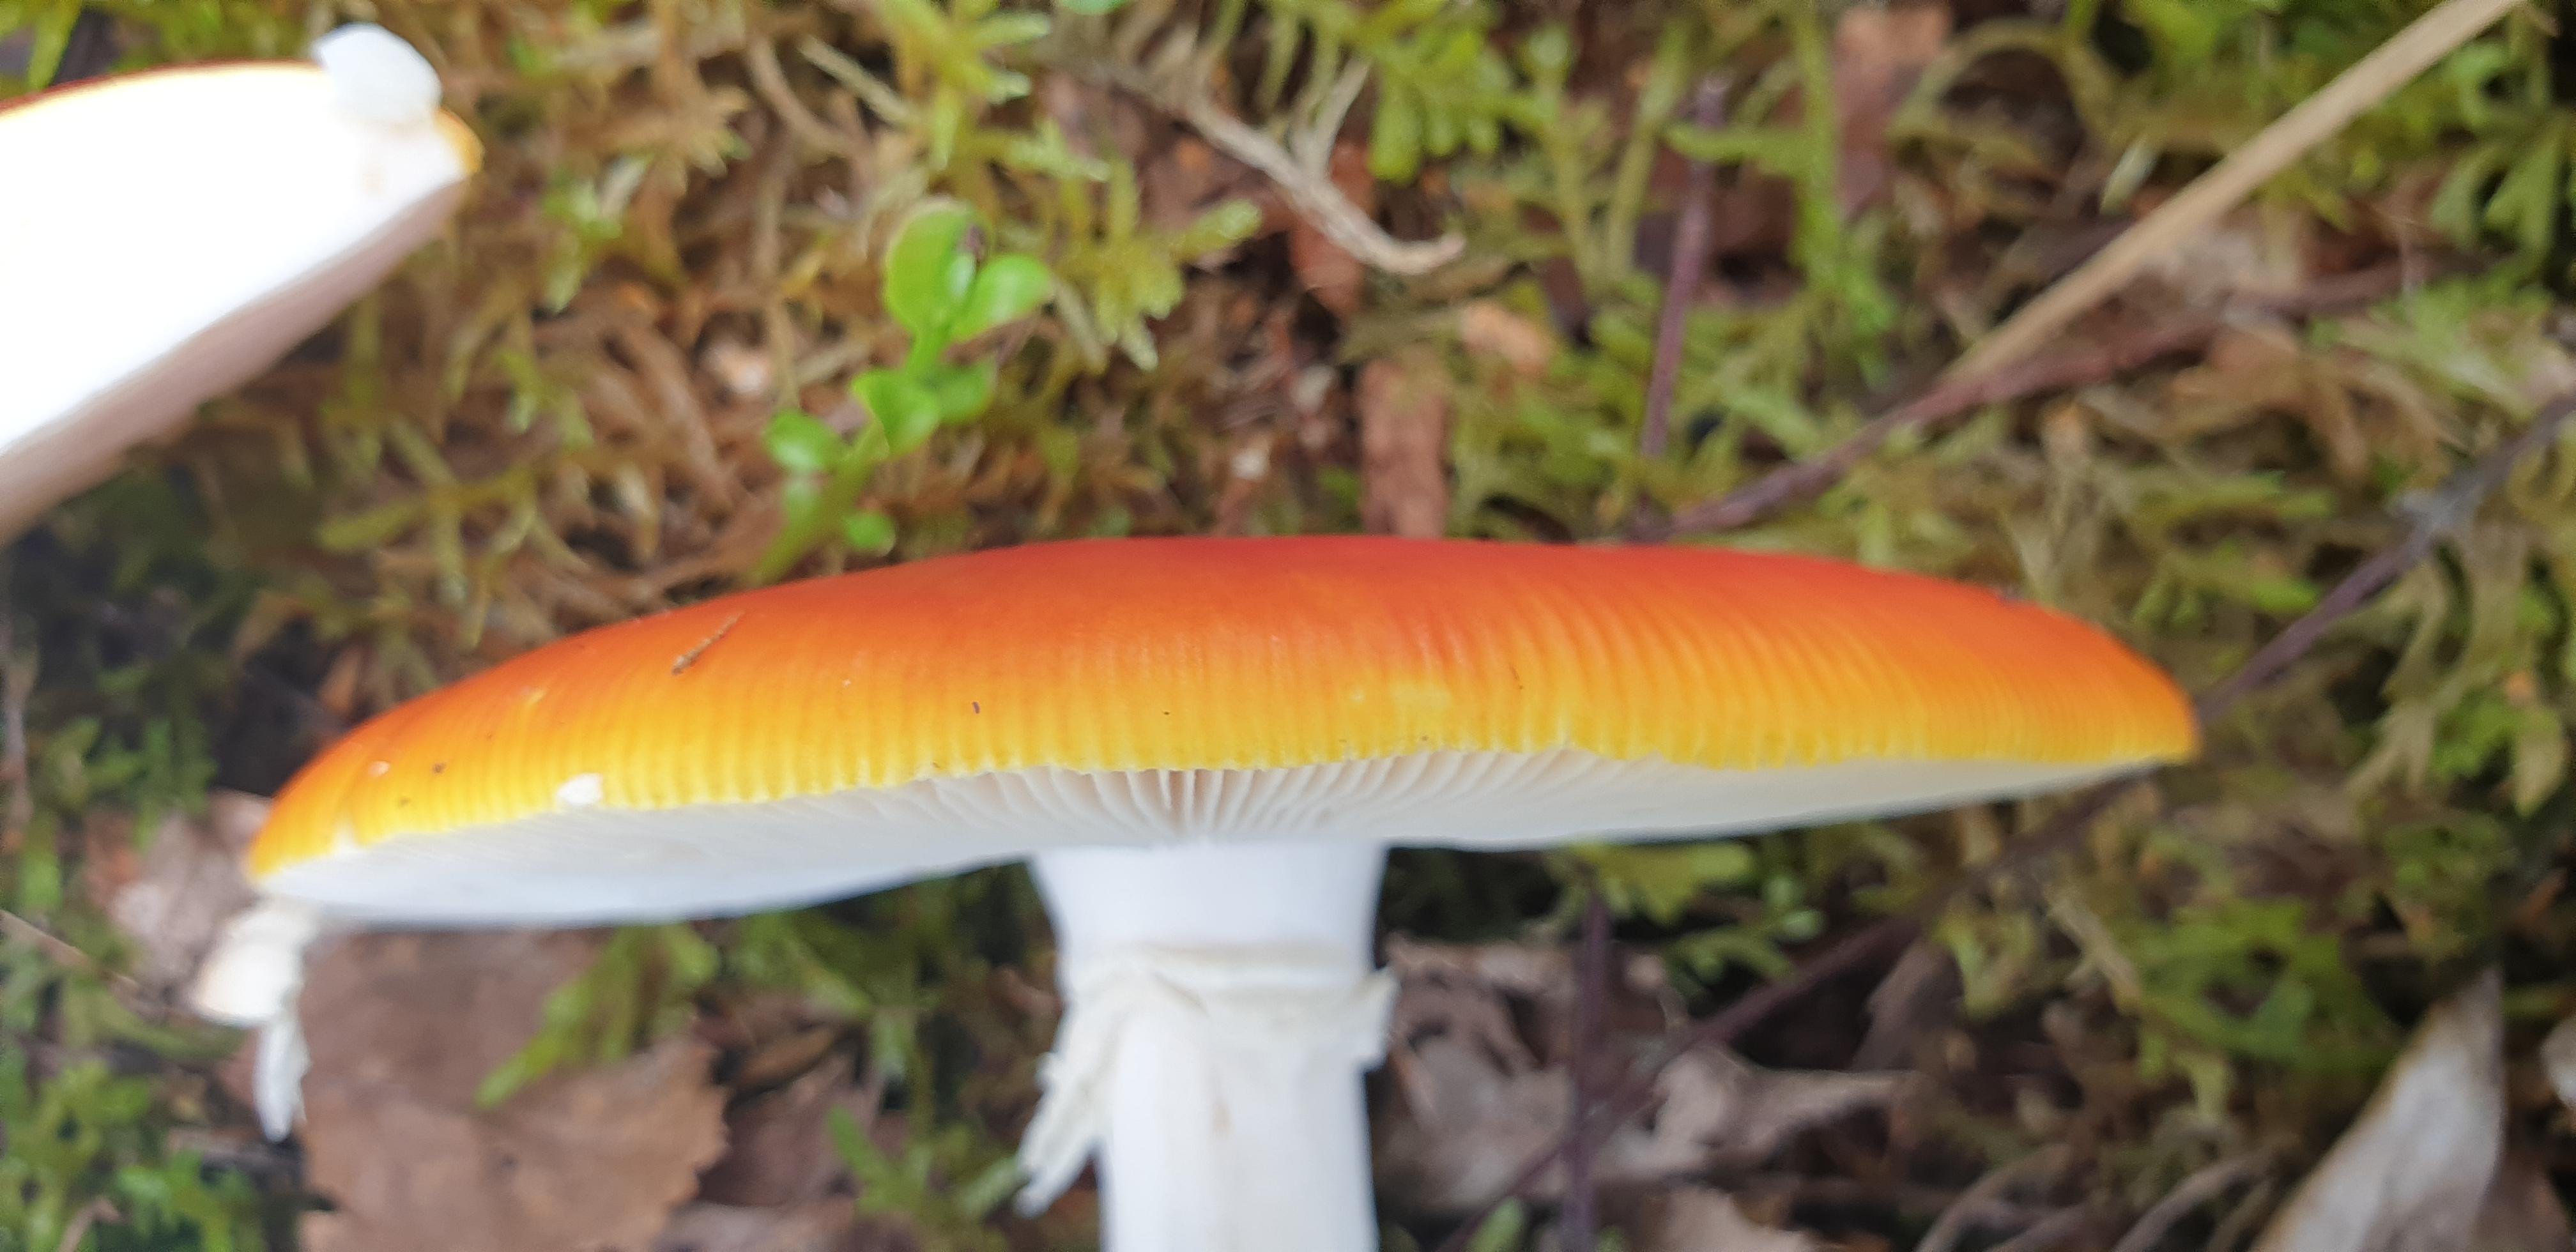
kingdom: Fungi
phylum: Basidiomycota
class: Agaricomycetes
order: Agaricales
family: Amanitaceae
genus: Amanita
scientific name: Amanita muscaria
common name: rød fluesvamp
